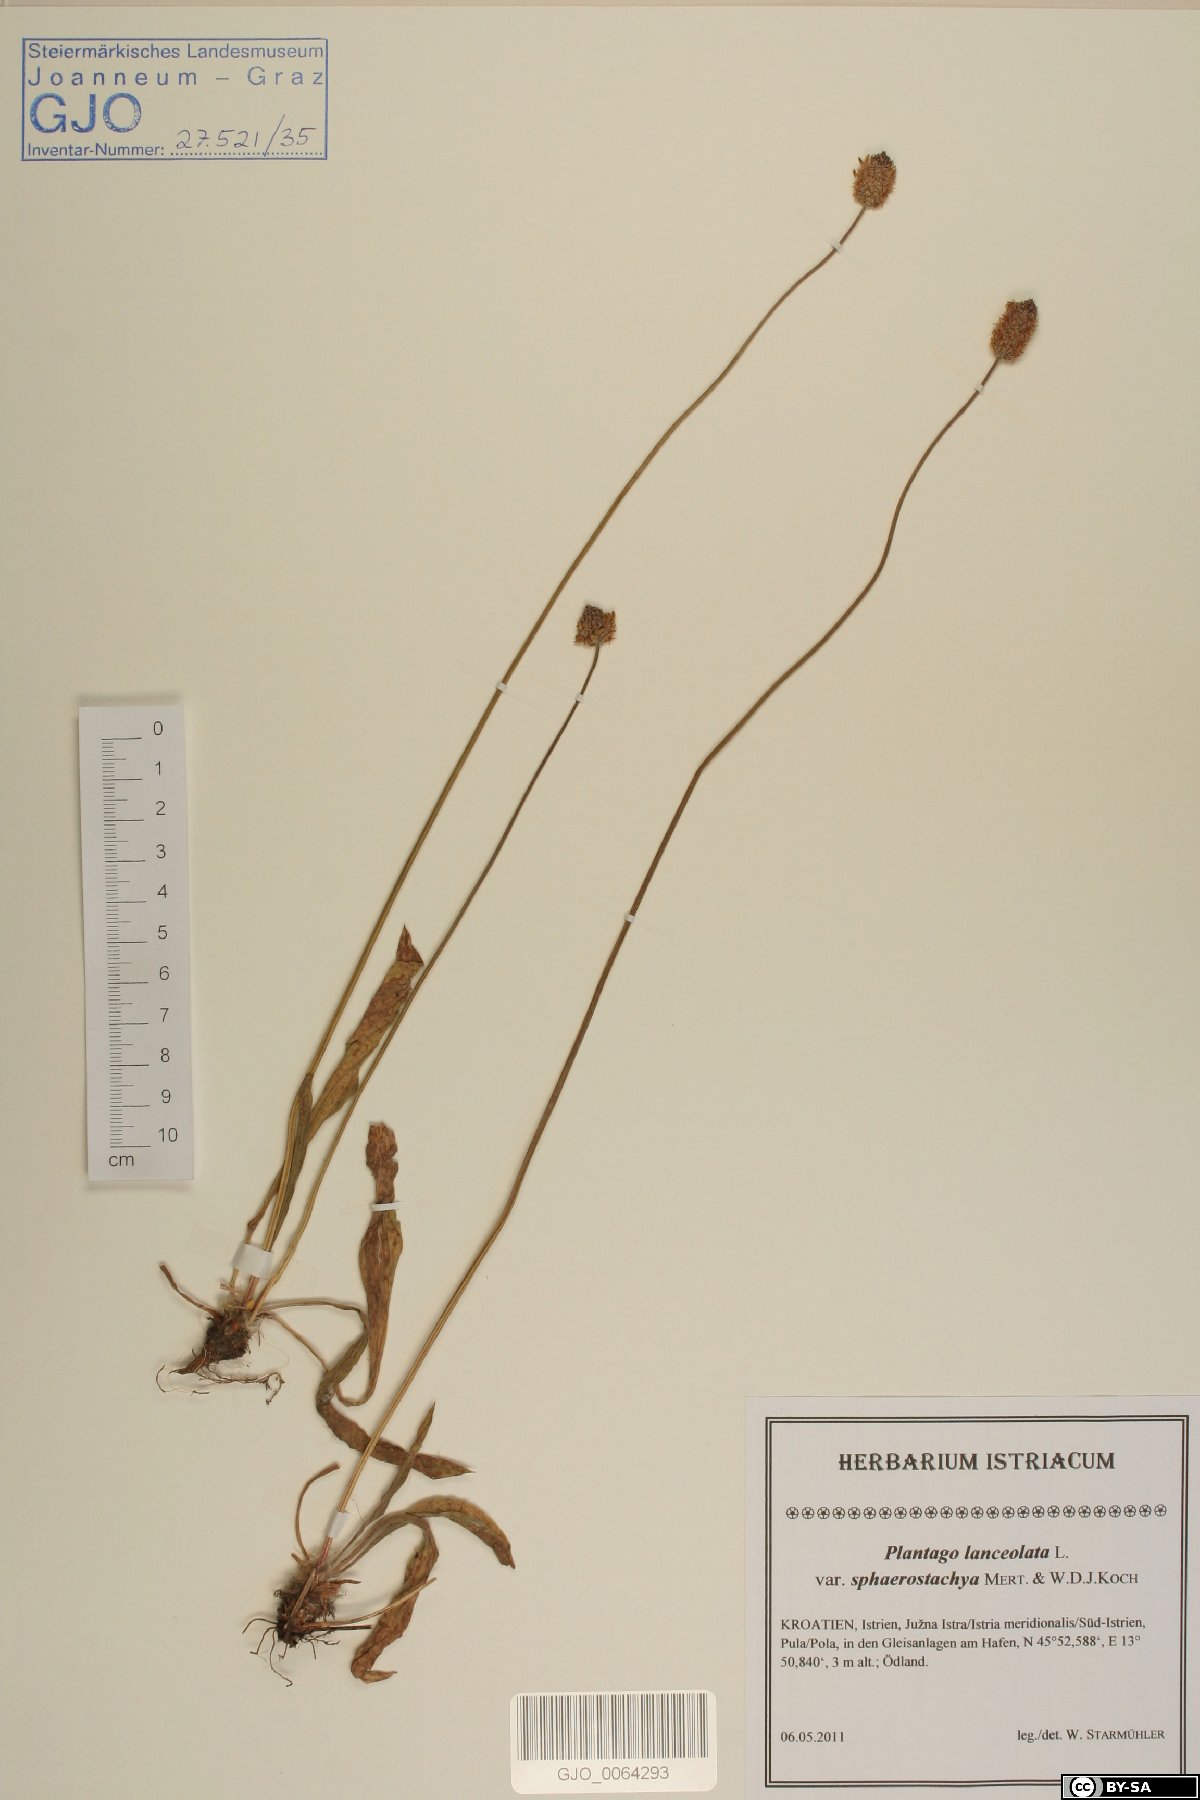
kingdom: Plantae
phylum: Tracheophyta
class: Magnoliopsida
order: Lamiales
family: Plantaginaceae
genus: Plantago
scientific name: Plantago lanceolata
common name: Ribwort plantain
